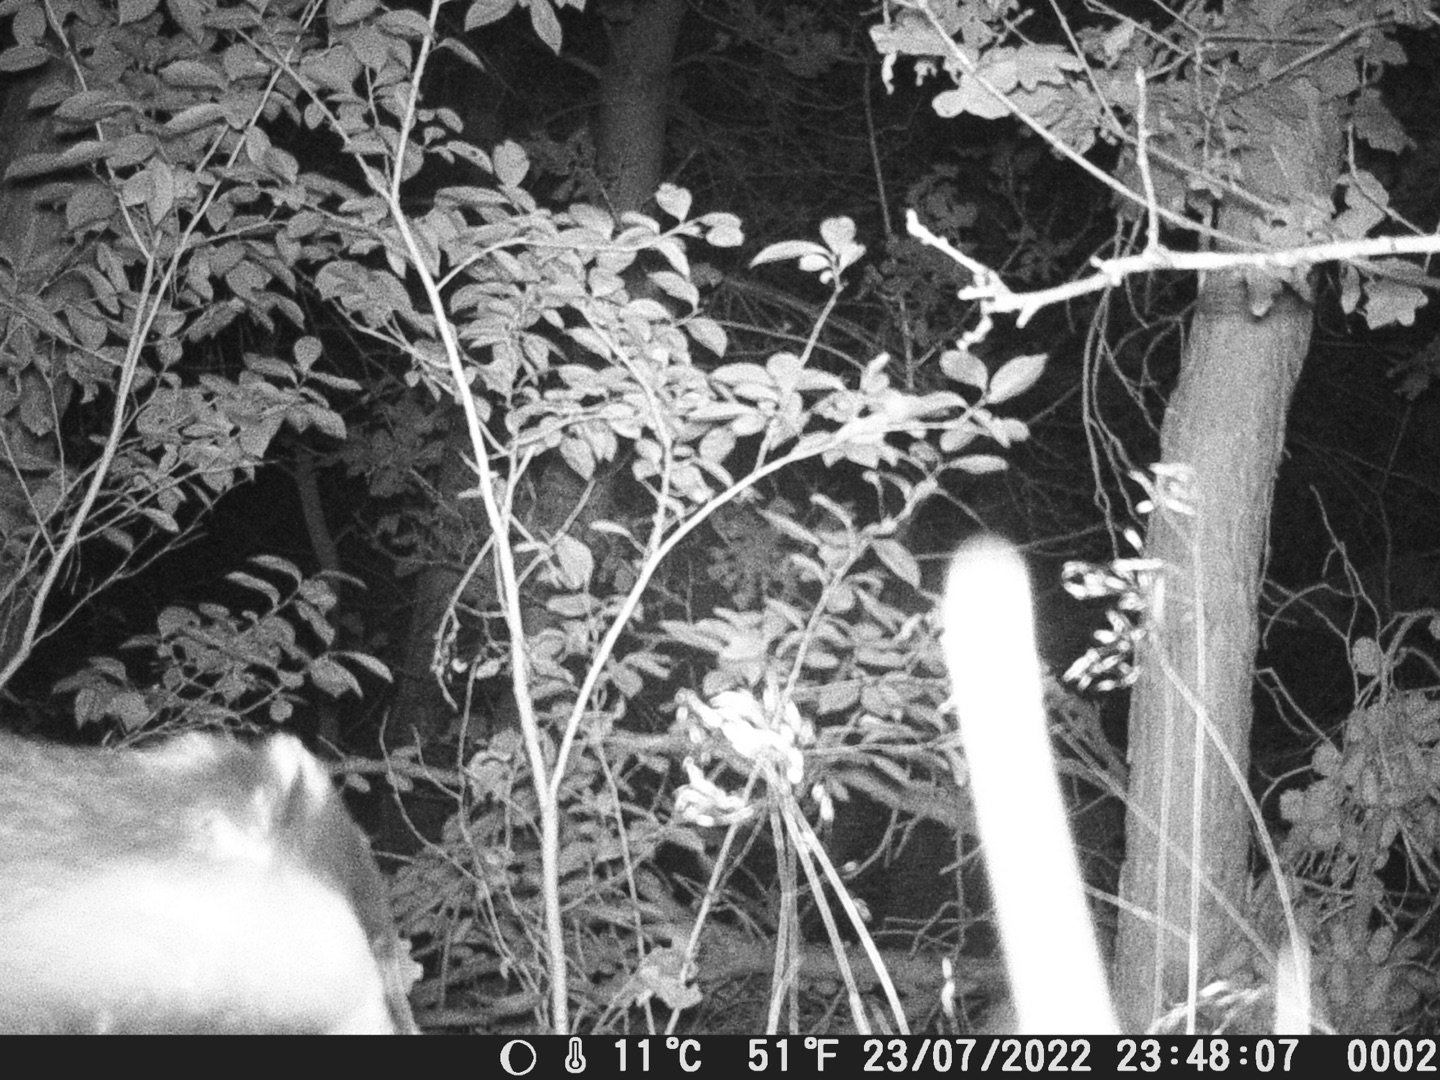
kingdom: Animalia
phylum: Chordata
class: Mammalia
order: Carnivora
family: Mustelidae
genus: Meles
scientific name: Meles meles
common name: Grævling
